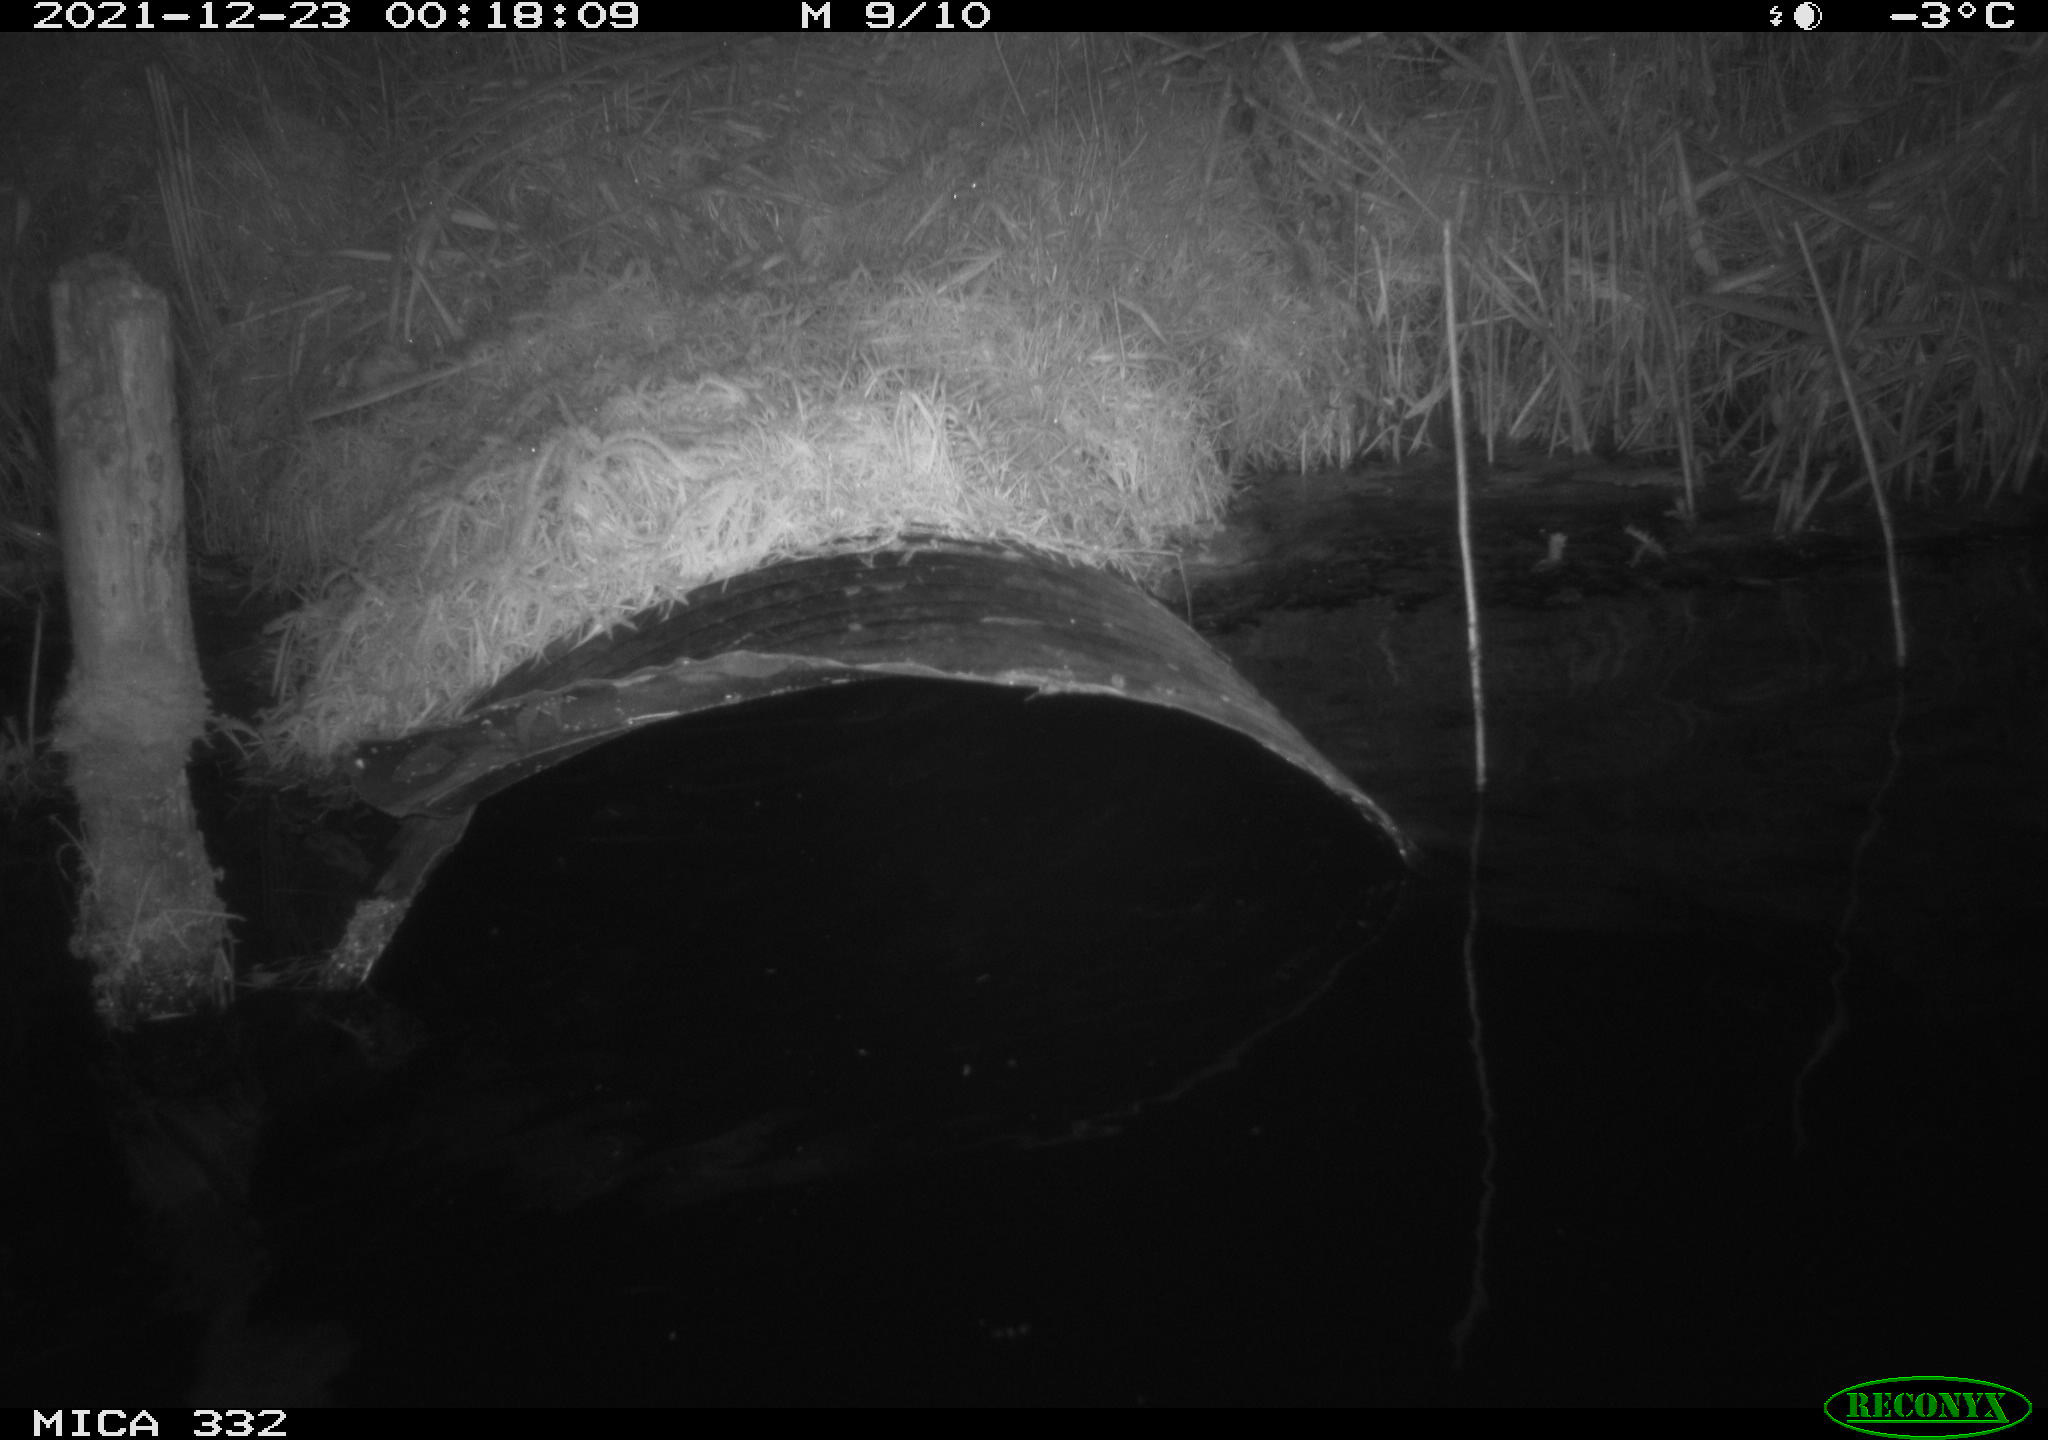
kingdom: Animalia
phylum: Chordata
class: Aves
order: Anseriformes
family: Anatidae
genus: Anas
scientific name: Anas platyrhynchos
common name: Mallard
